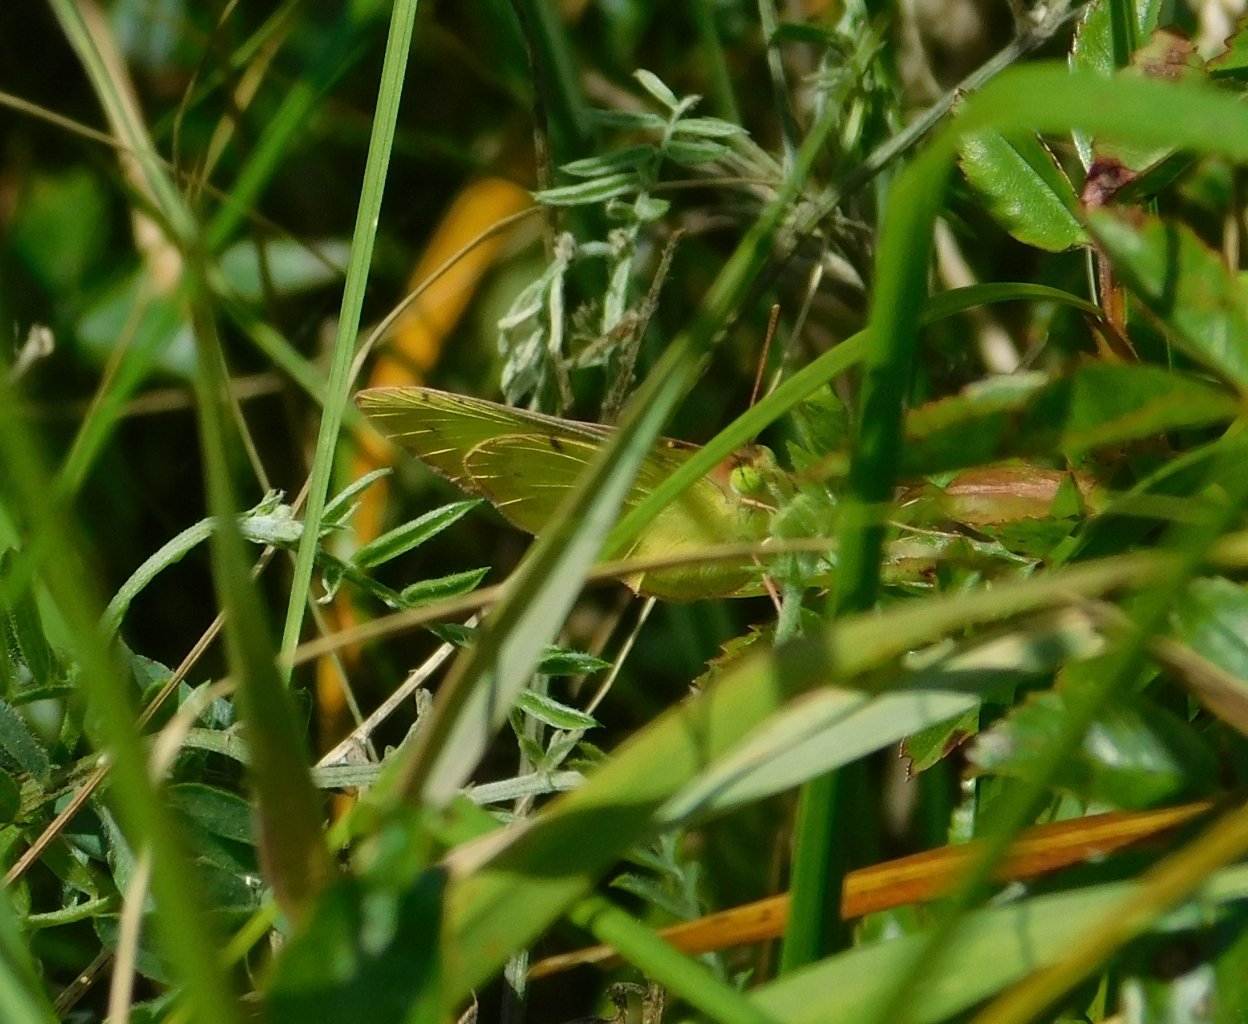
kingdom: Animalia
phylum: Arthropoda
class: Insecta
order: Lepidoptera
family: Pieridae
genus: Colias
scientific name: Colias philodice
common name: Clouded Sulphur
